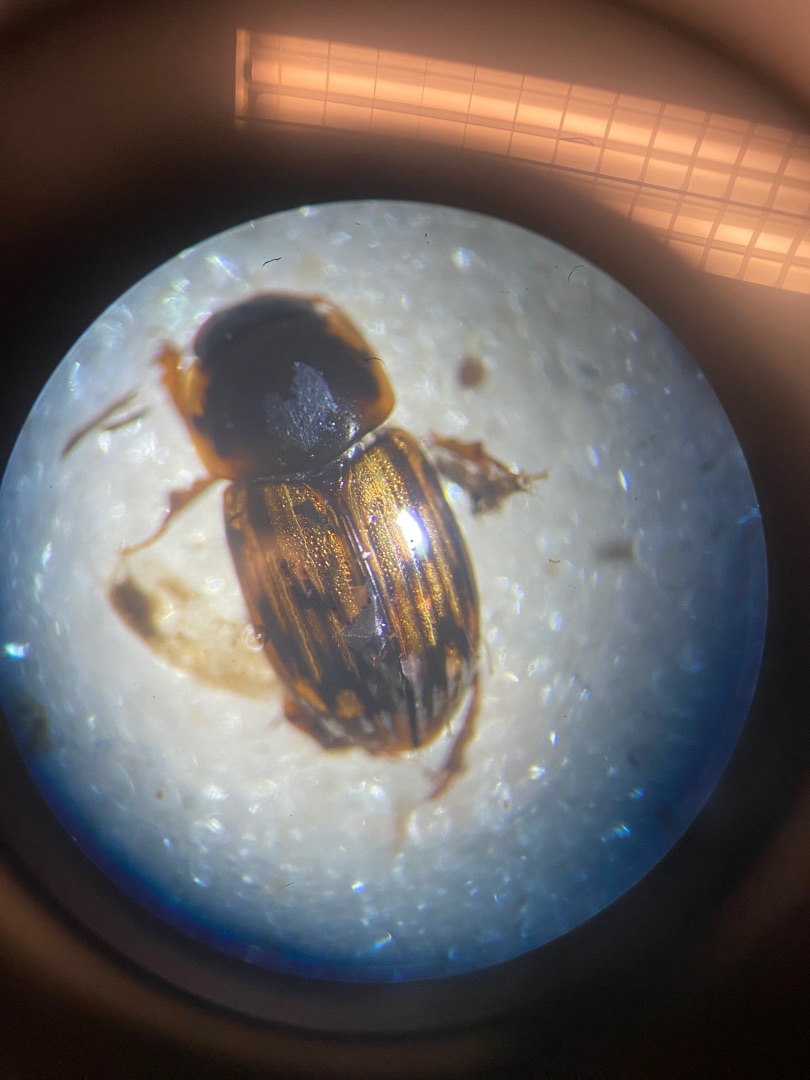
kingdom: Animalia
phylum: Arthropoda
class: Insecta
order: Coleoptera
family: Scarabaeidae
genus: Volinus
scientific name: Volinus sticticus
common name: Skovmøgbille
